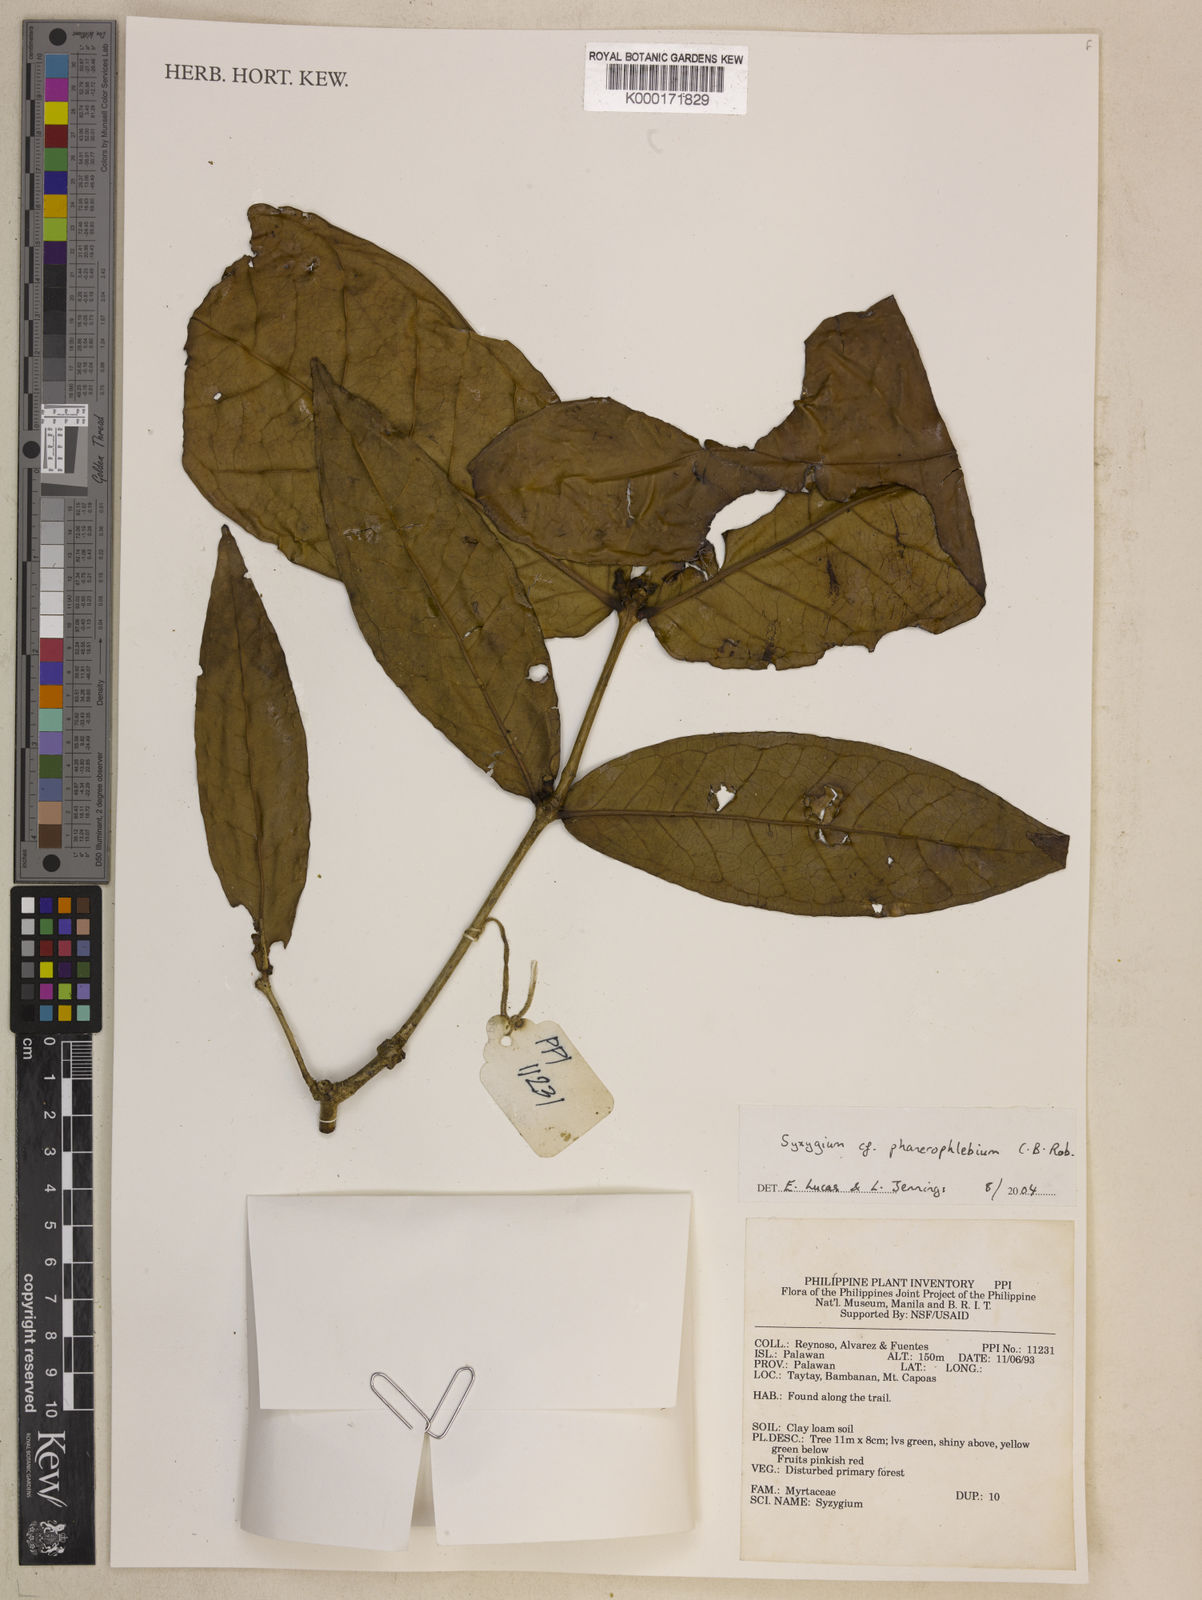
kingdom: Plantae
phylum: Tracheophyta
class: Magnoliopsida
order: Myrtales
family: Myrtaceae
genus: Syzygium
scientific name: Syzygium phanerophlebium
